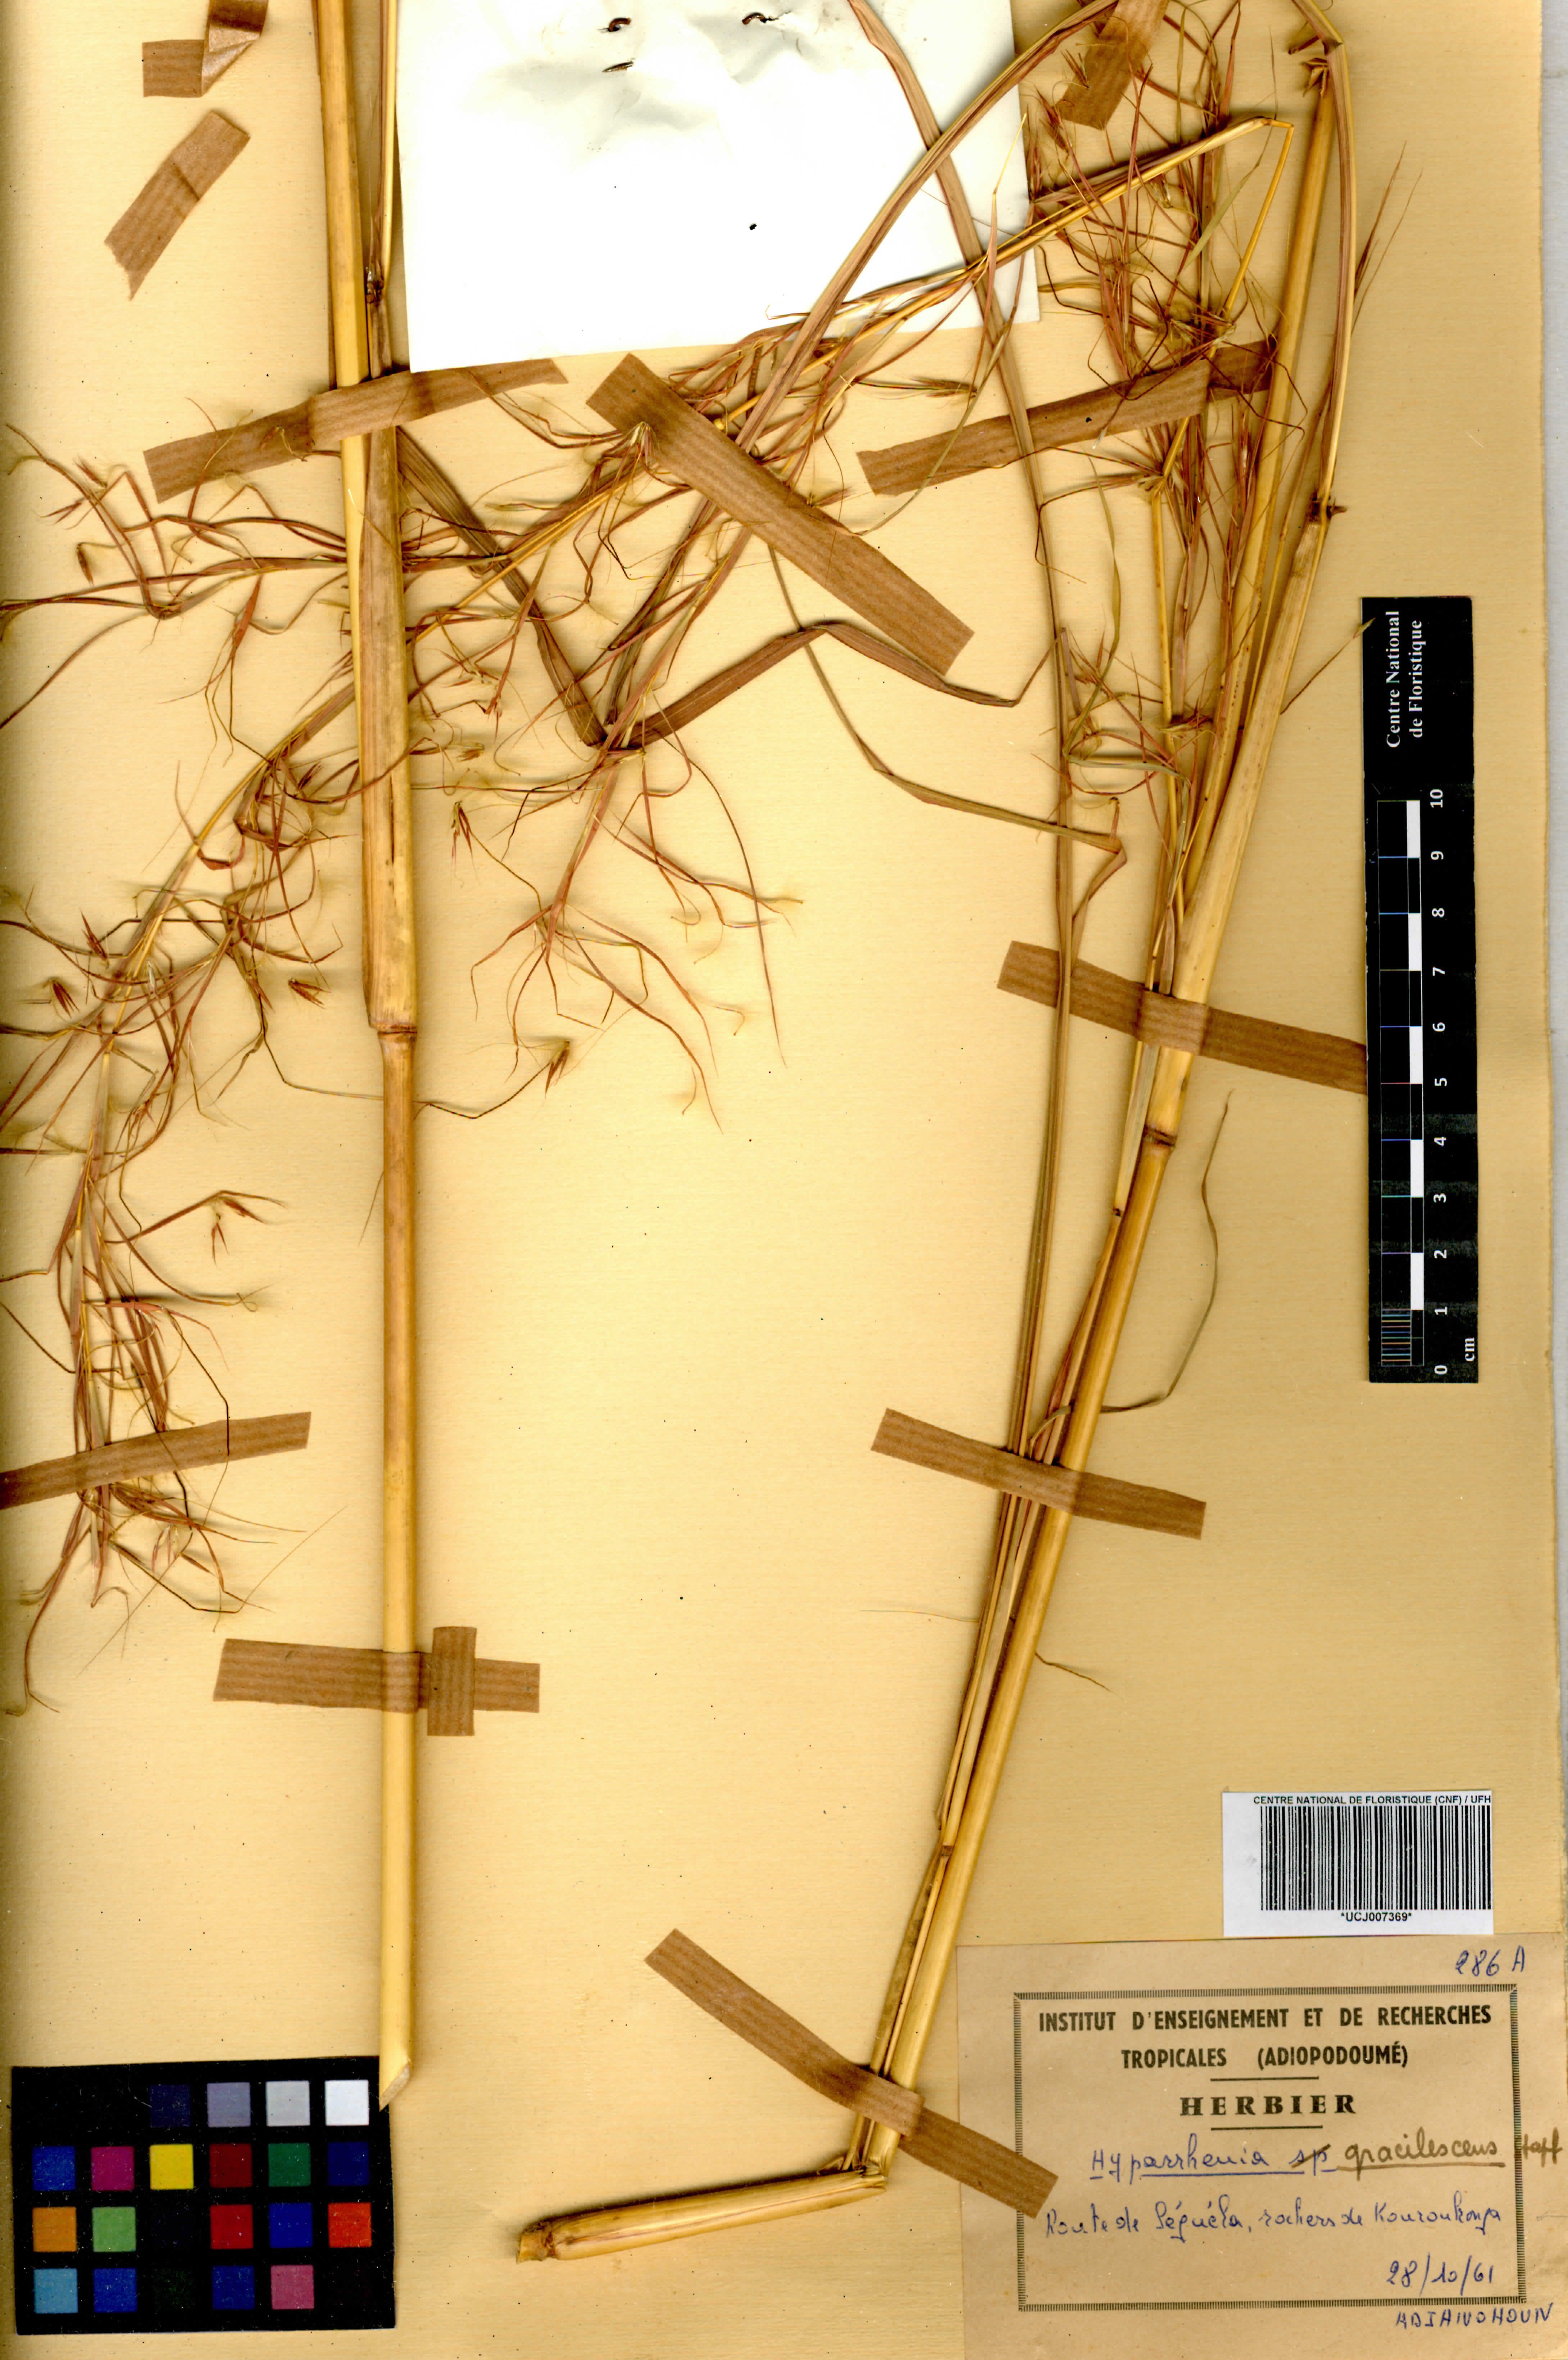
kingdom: Plantae
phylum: Tracheophyta
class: Liliopsida
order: Poales
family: Poaceae
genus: Hyparrhenia
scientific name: Hyparrhenia welwitschii
